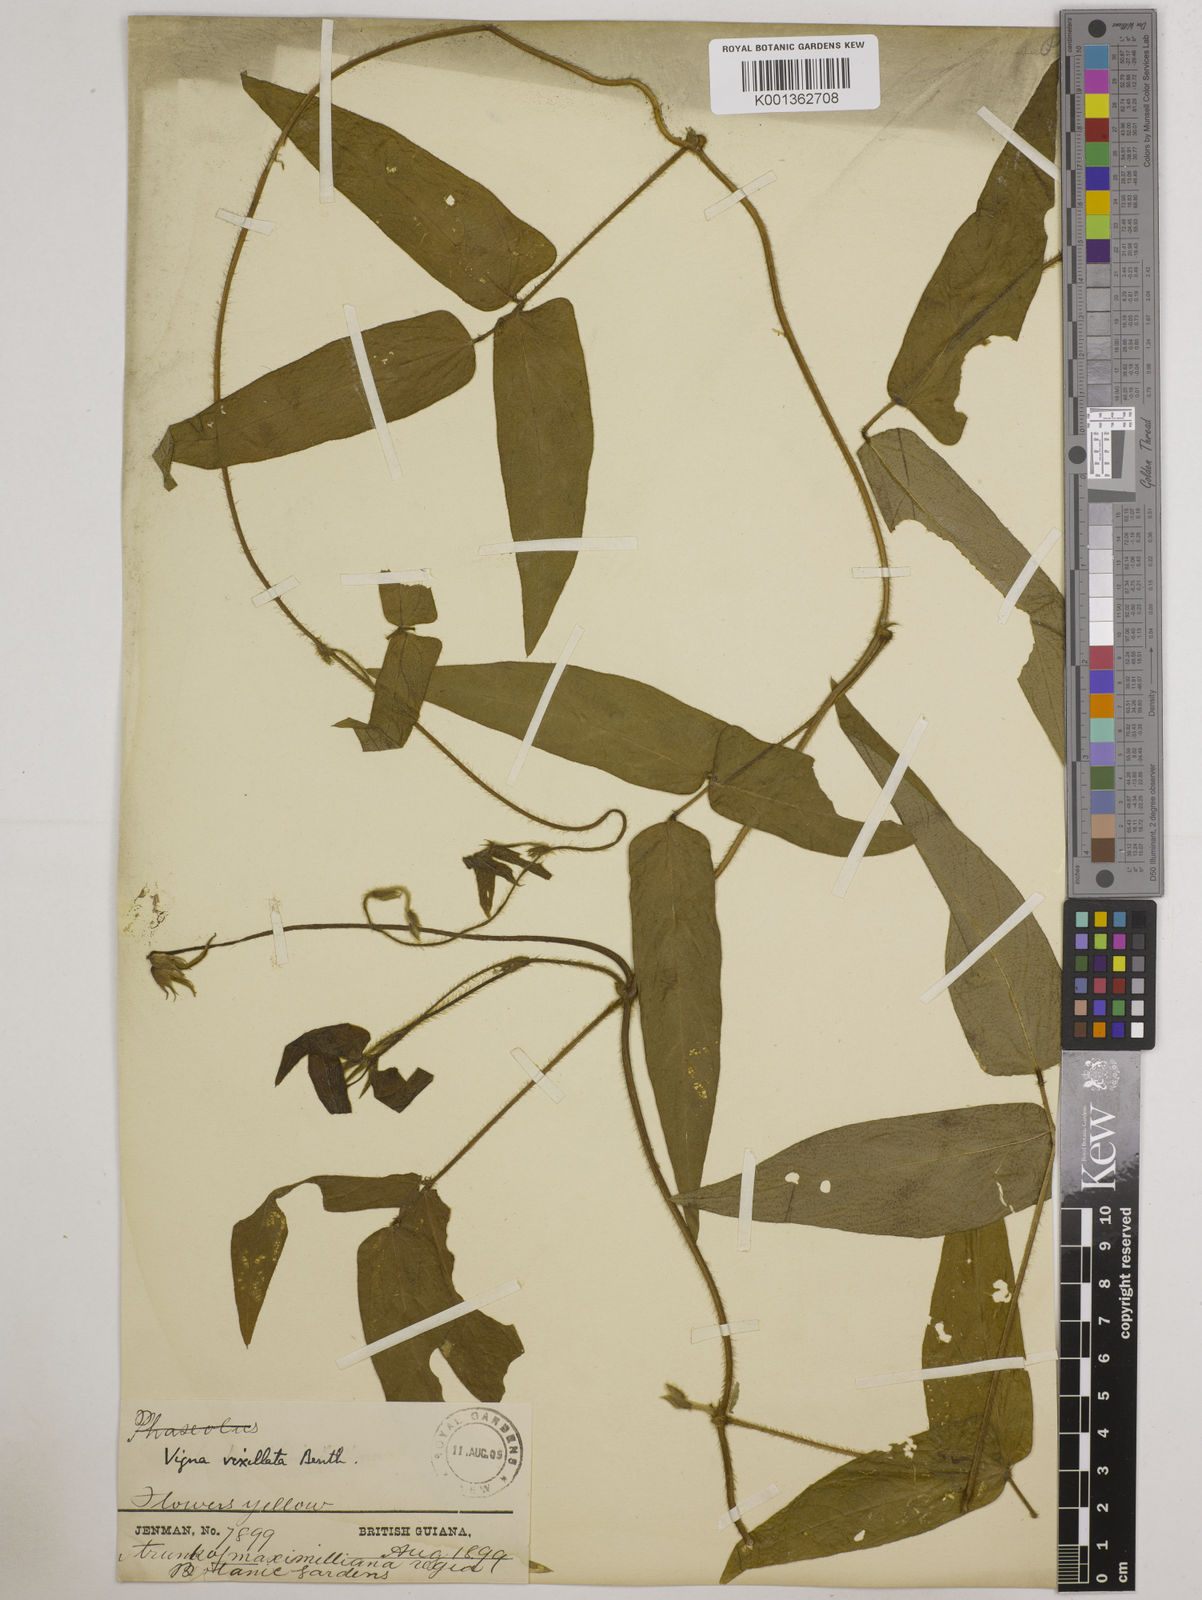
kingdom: Plantae
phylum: Tracheophyta
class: Magnoliopsida
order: Fabales
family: Fabaceae
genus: Vigna
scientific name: Vigna vexillata
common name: Zombi pea
